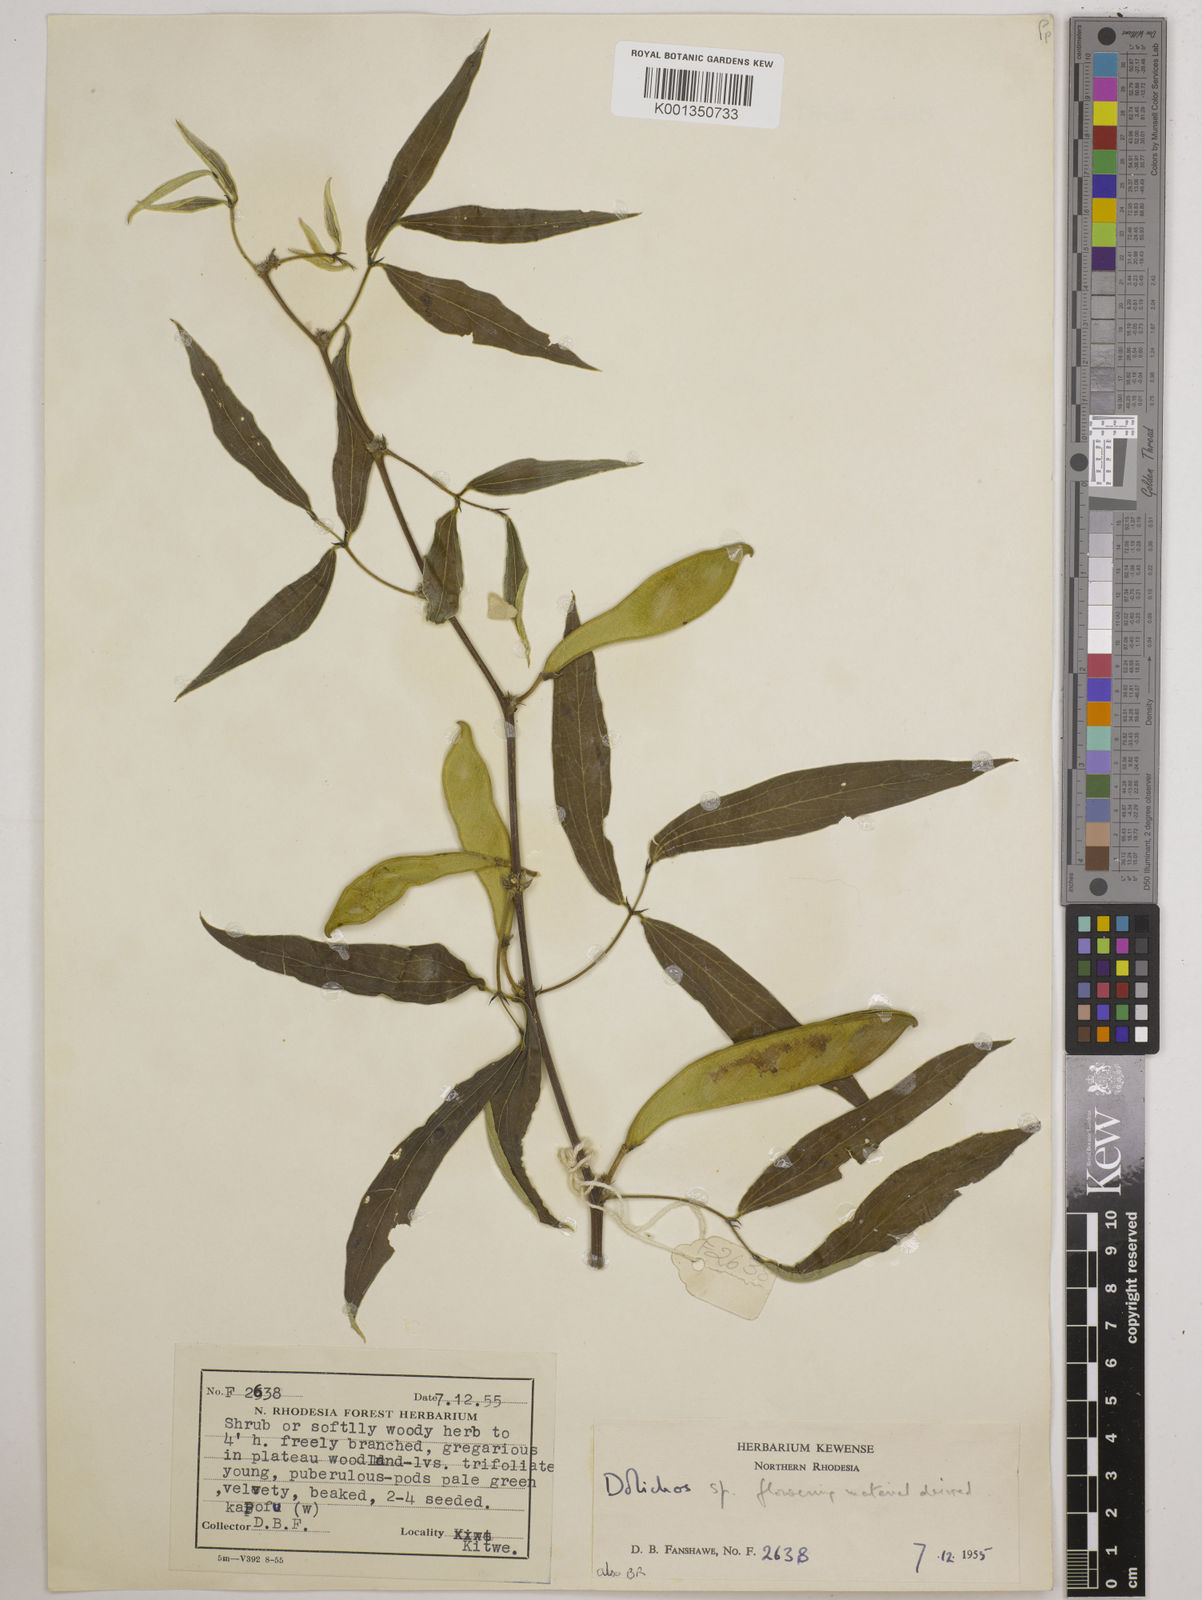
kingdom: Plantae
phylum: Tracheophyta
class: Magnoliopsida
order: Fabales
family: Fabaceae
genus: Dolichos
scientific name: Dolichos
